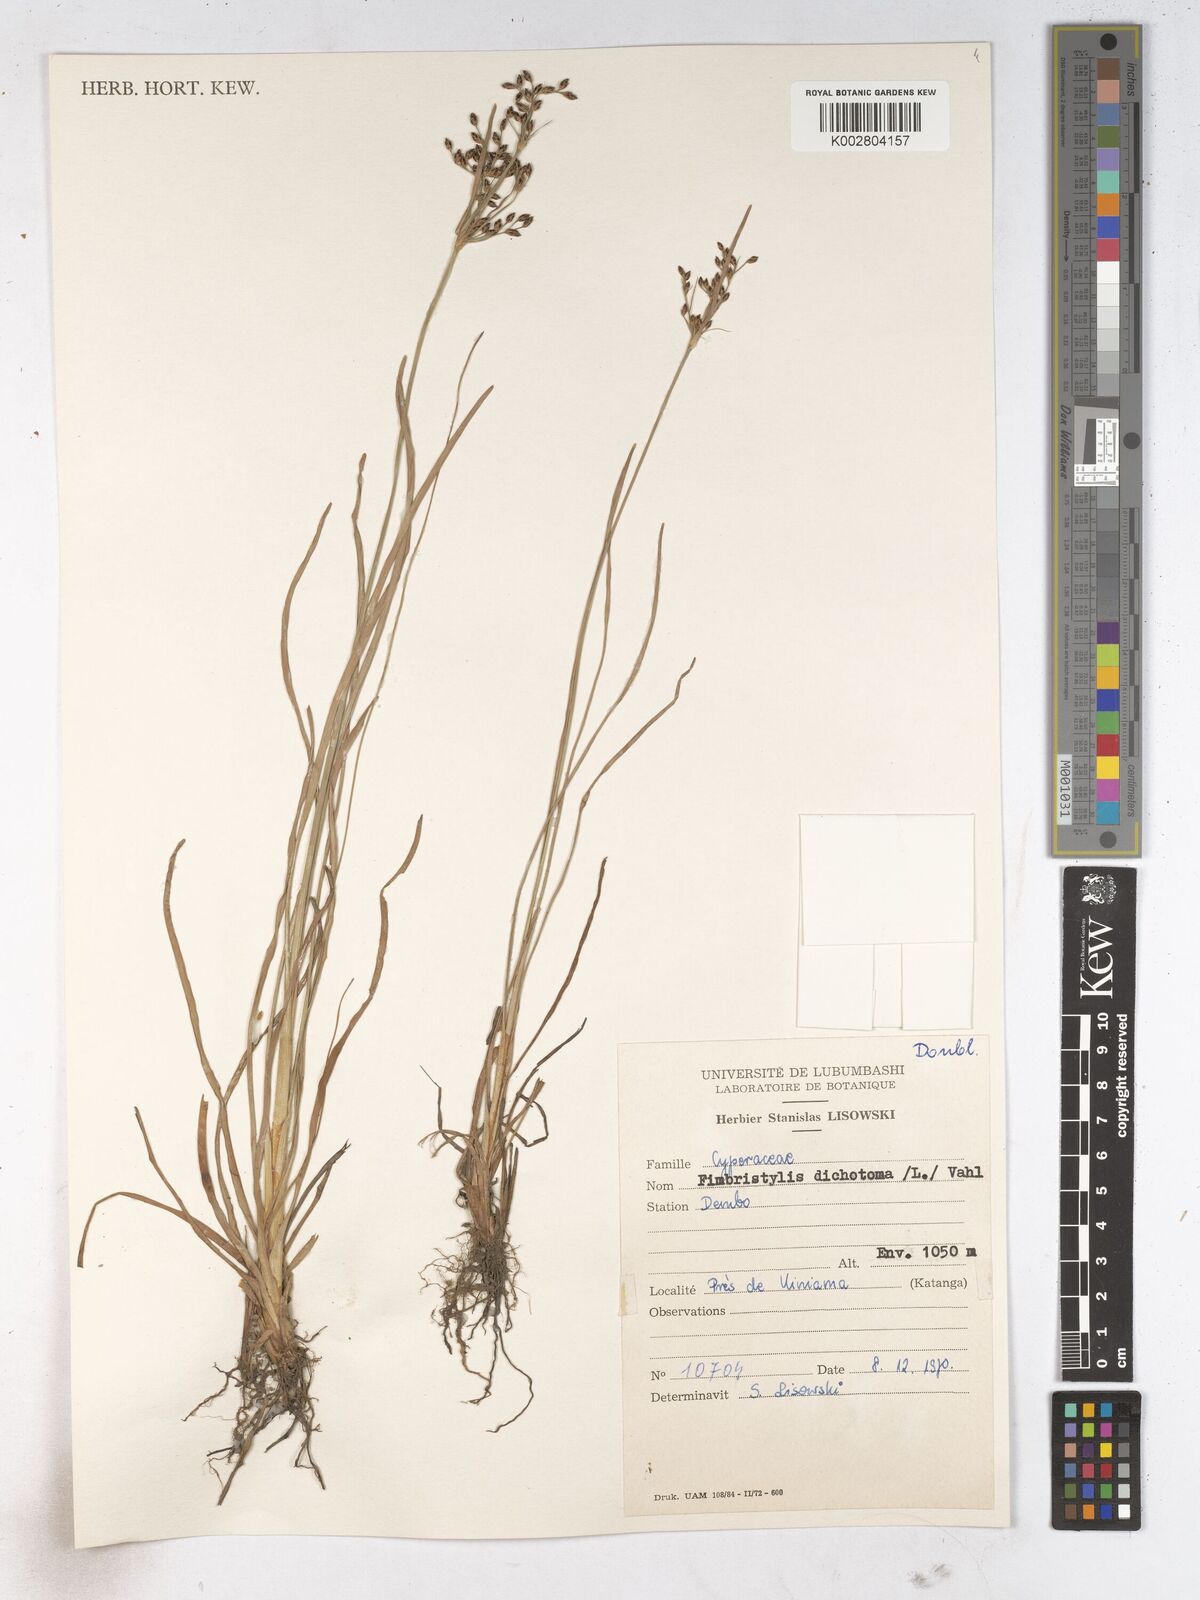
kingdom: Plantae
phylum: Tracheophyta
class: Liliopsida
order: Poales
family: Cyperaceae
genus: Fimbristylis
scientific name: Fimbristylis dichotoma
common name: Forked fimbry
